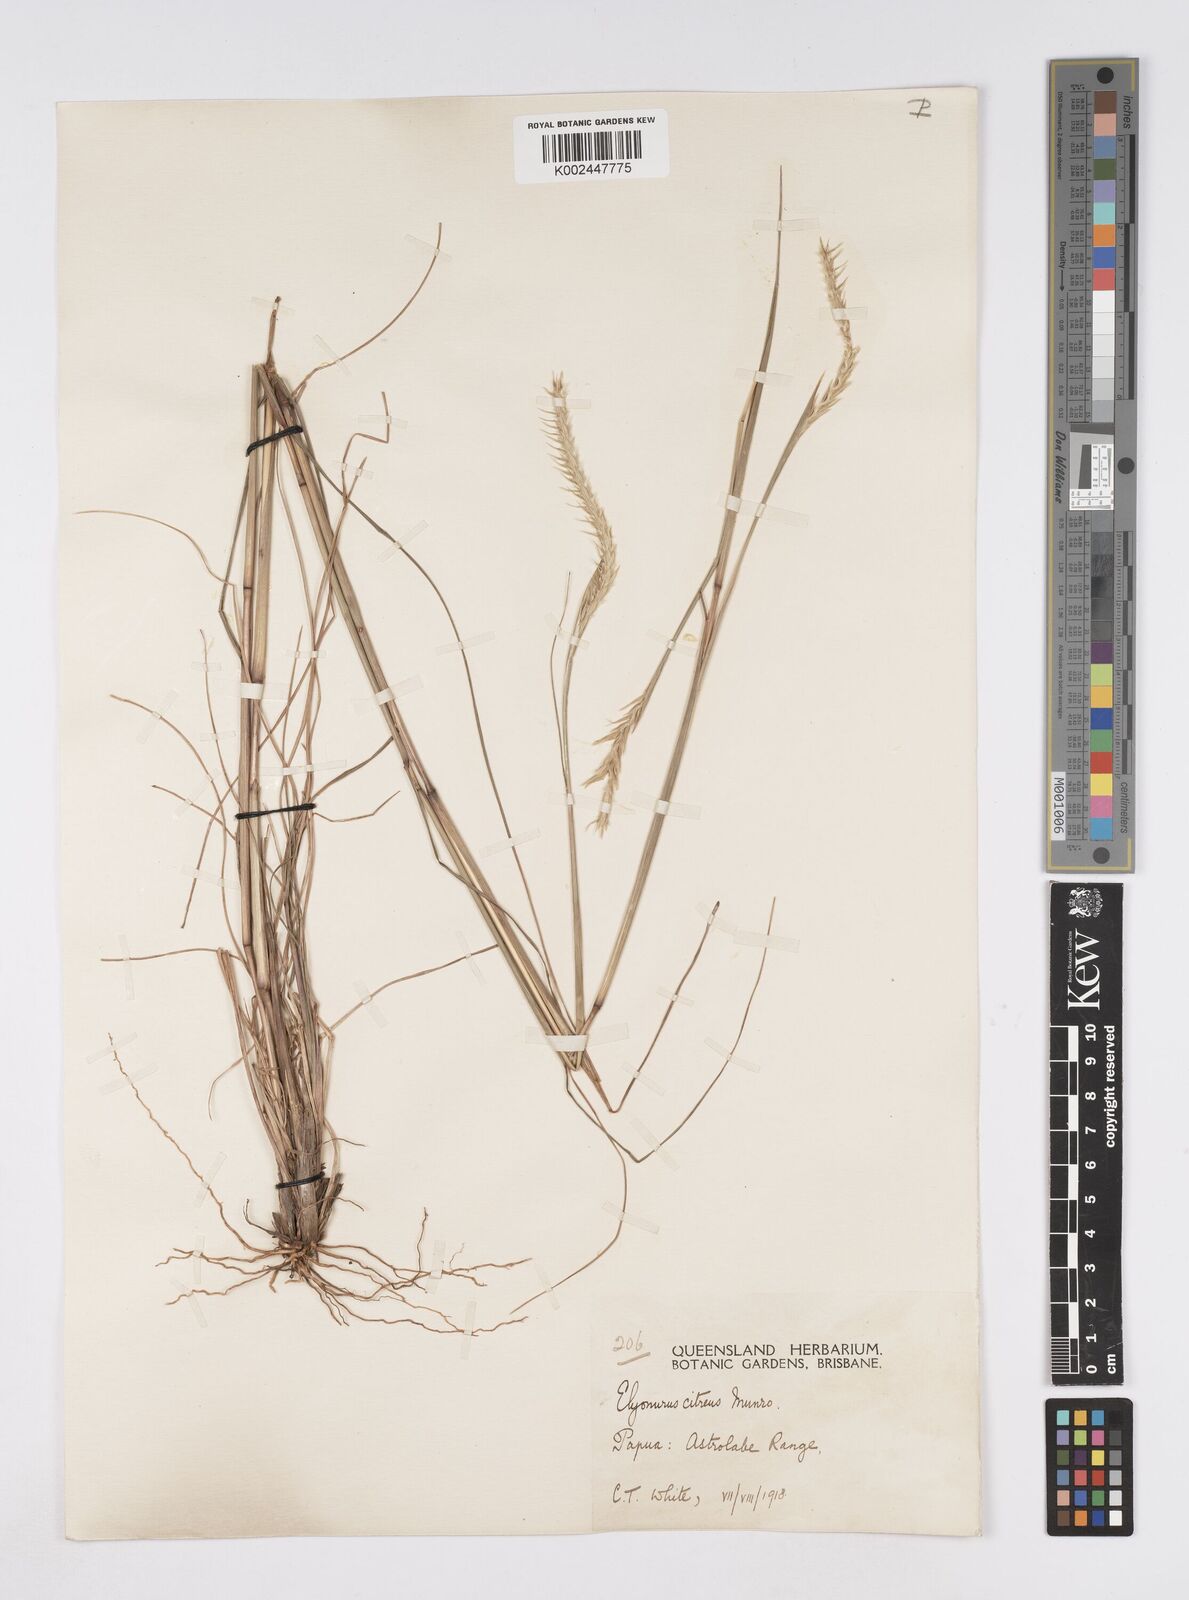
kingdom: Plantae
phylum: Tracheophyta
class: Liliopsida
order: Poales
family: Poaceae
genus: Elionurus
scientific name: Elionurus citreus
